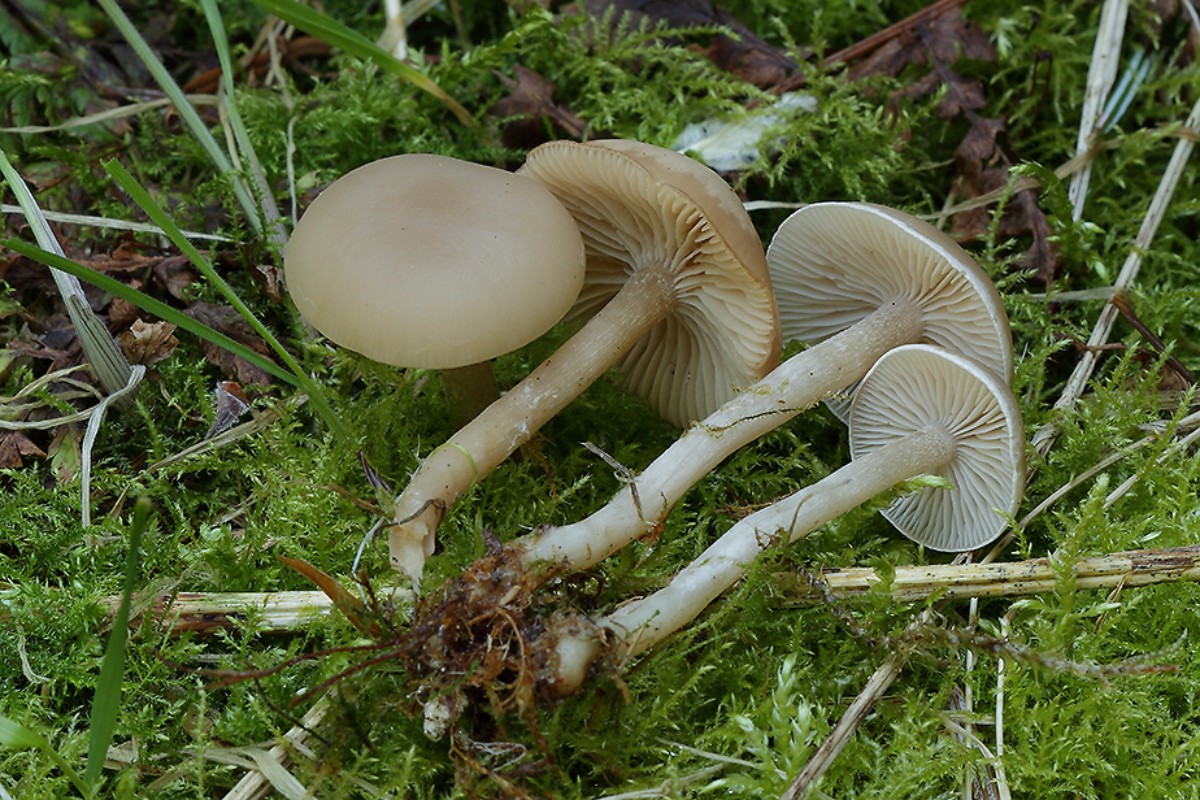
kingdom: Fungi
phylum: Basidiomycota
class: Agaricomycetes
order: Agaricales
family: Tricholomataceae
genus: Clitocybe
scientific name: Clitocybe fragrans
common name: vellugtende tragthat
